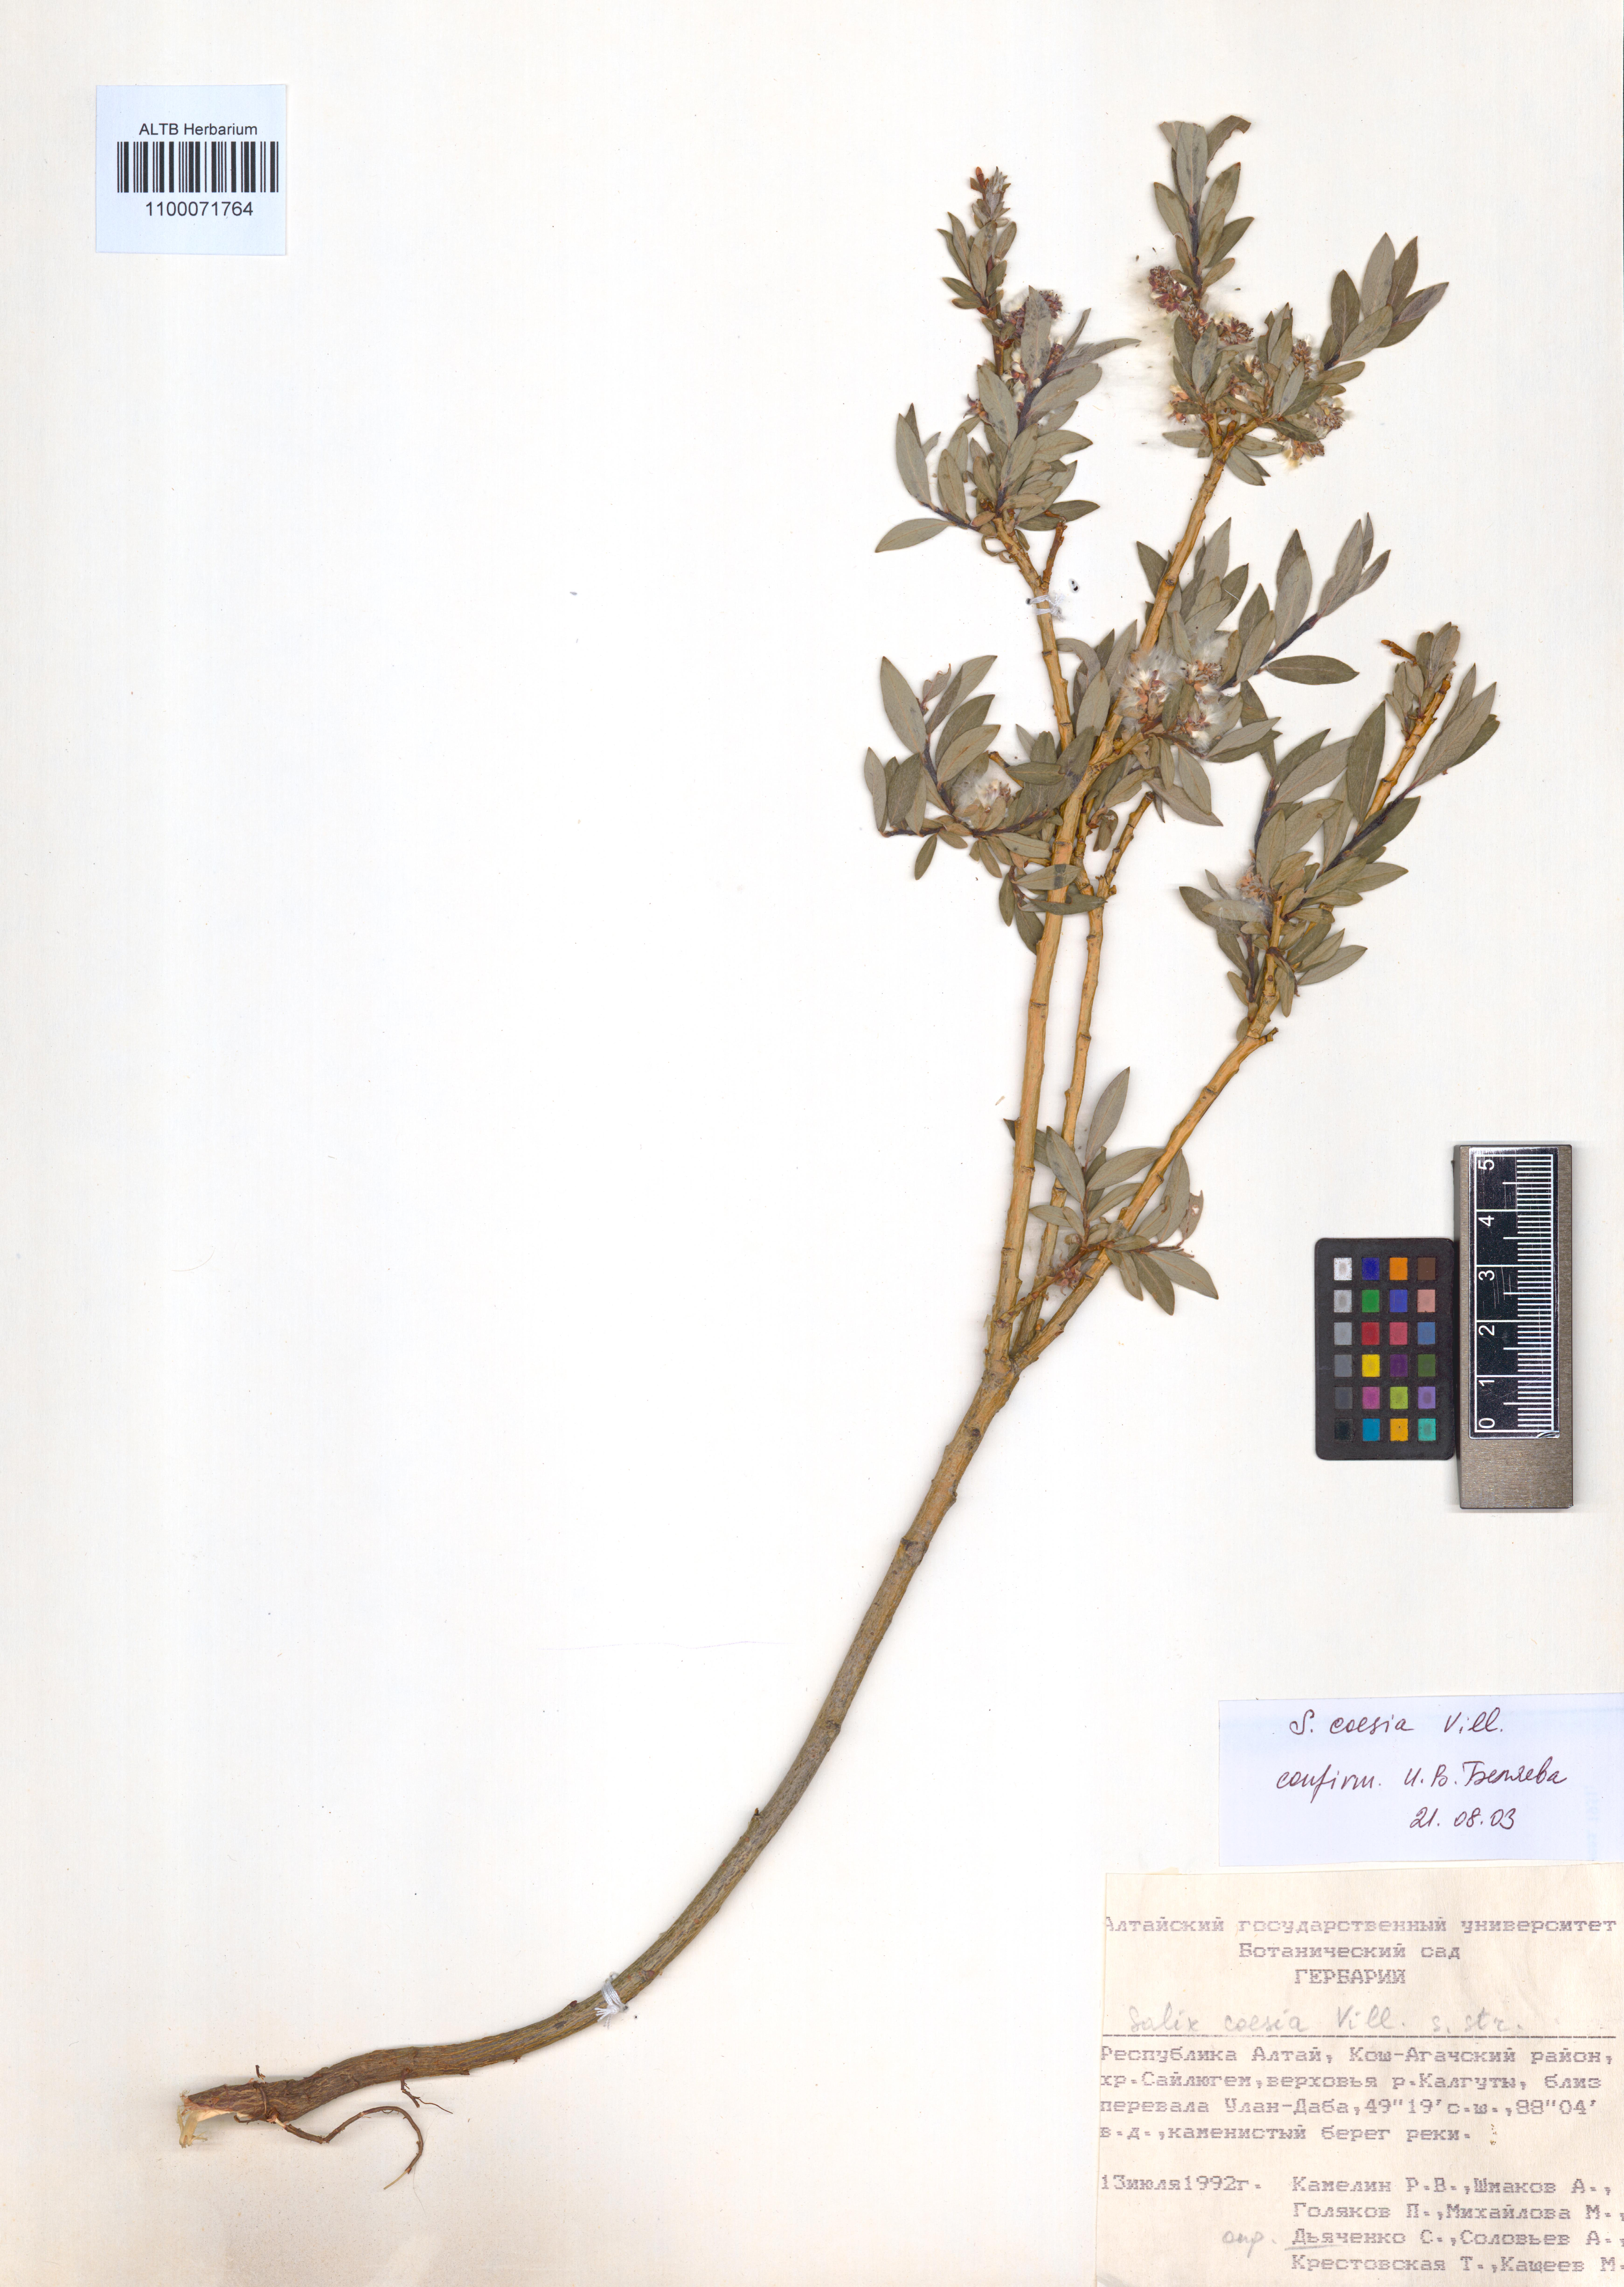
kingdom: Plantae
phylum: Tracheophyta
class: Magnoliopsida
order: Malpighiales
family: Salicaceae
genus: Salix
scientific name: Salix caesia
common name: Blue willow
